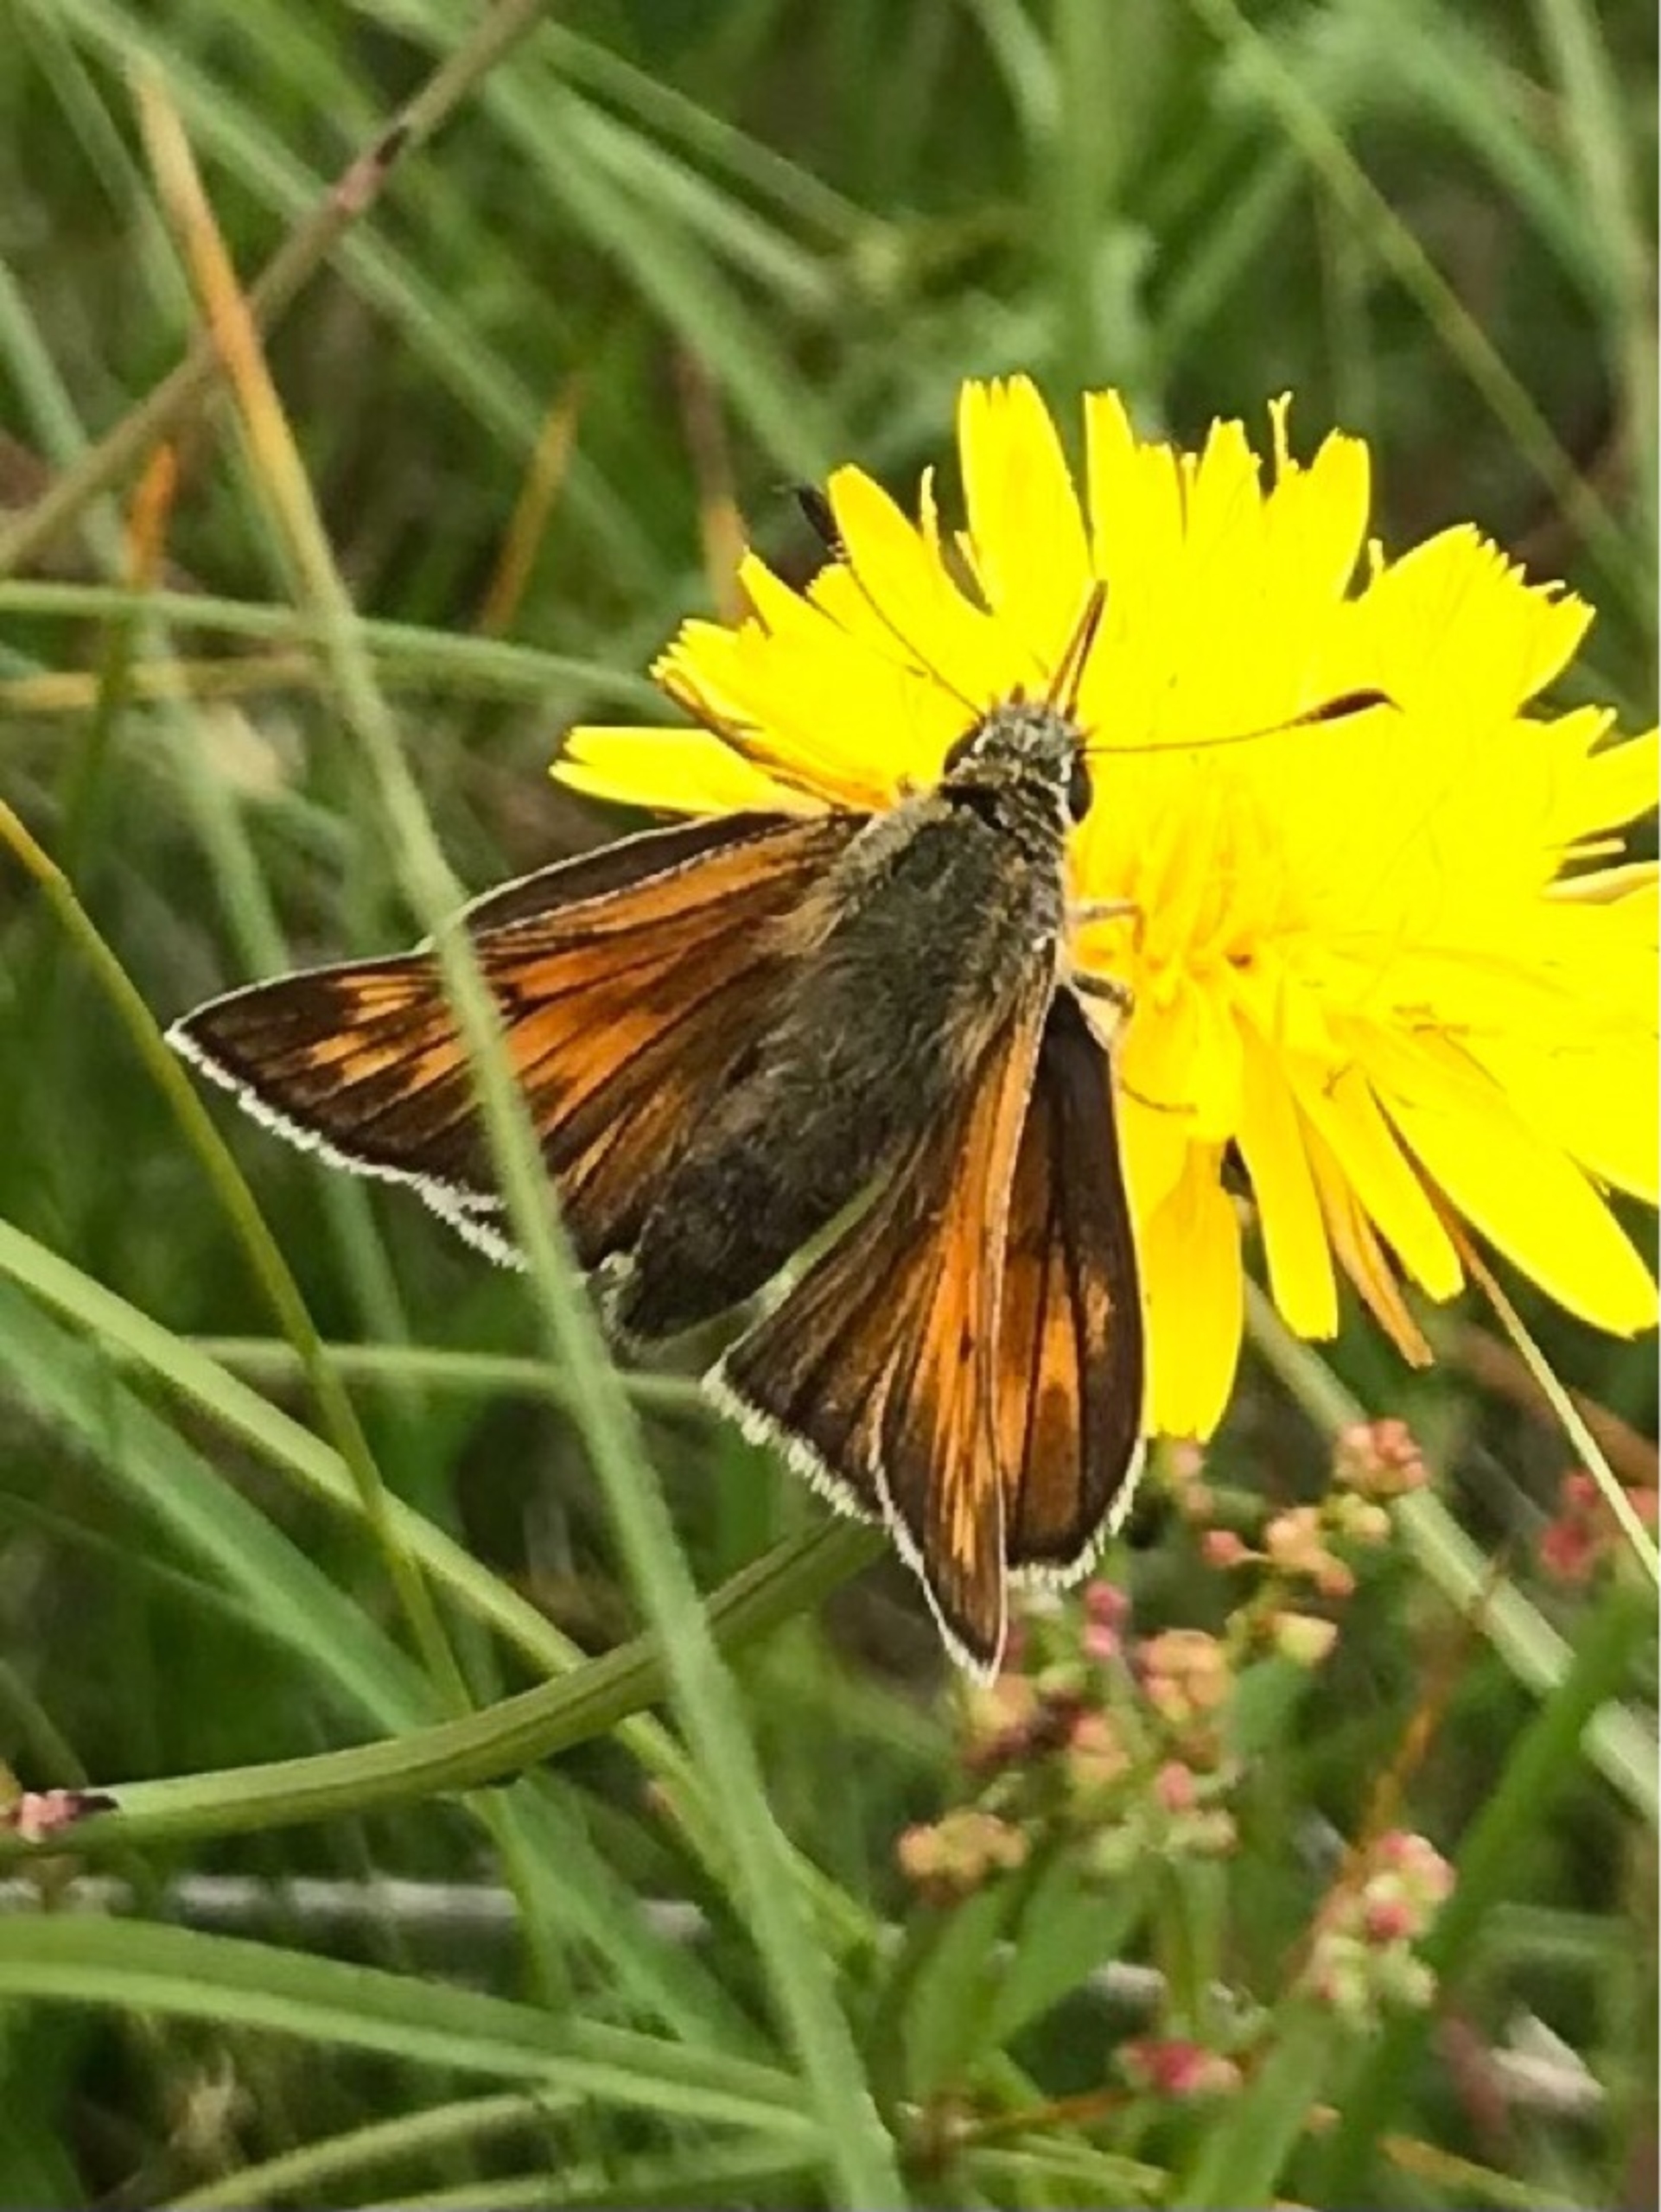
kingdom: Animalia
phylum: Arthropoda
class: Insecta
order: Lepidoptera
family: Hesperiidae
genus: Ochlodes
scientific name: Ochlodes venata
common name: Stor bredpande
